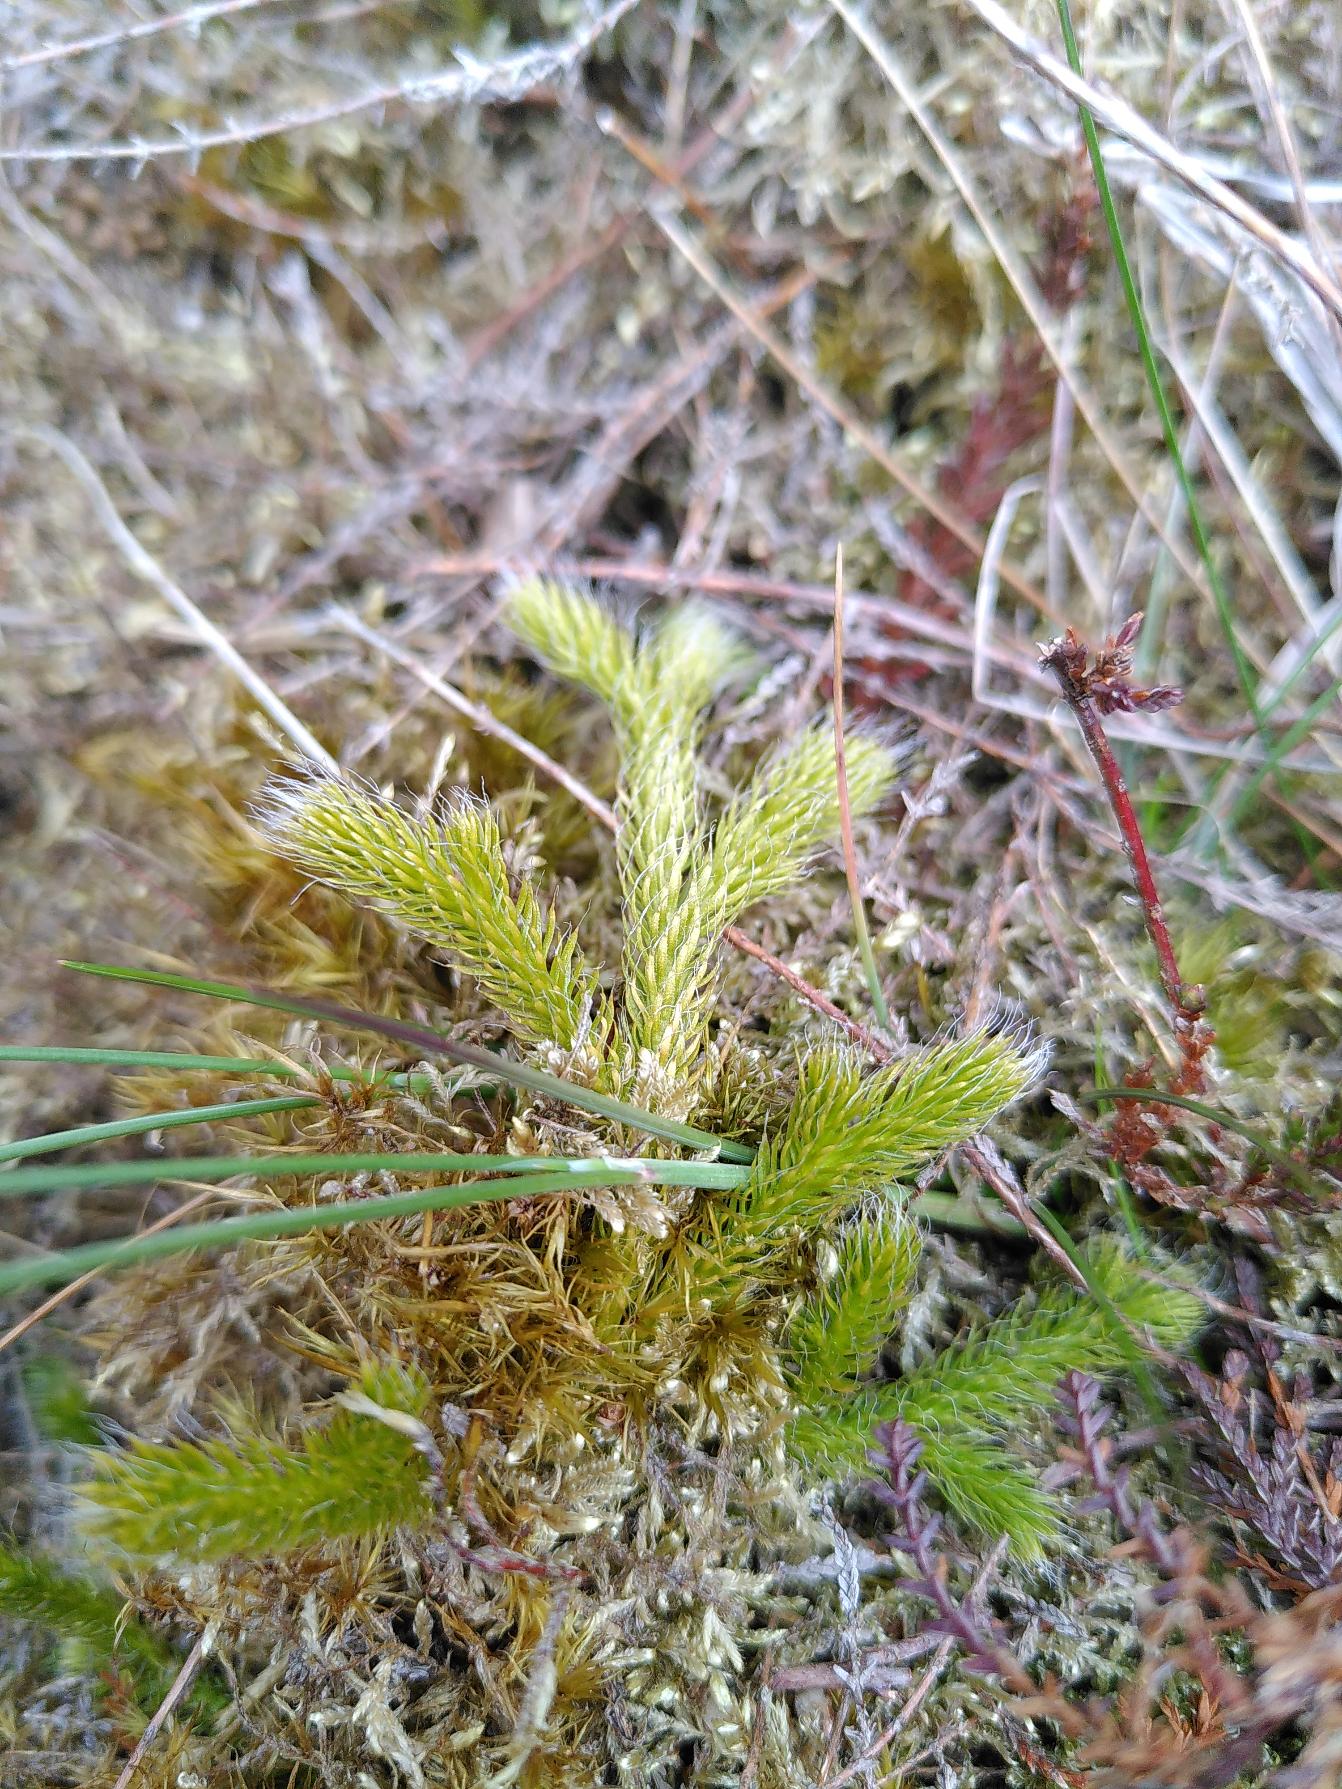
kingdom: Plantae
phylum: Tracheophyta
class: Lycopodiopsida
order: Lycopodiales
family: Lycopodiaceae
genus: Lycopodium
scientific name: Lycopodium clavatum
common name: Almindelig ulvefod
